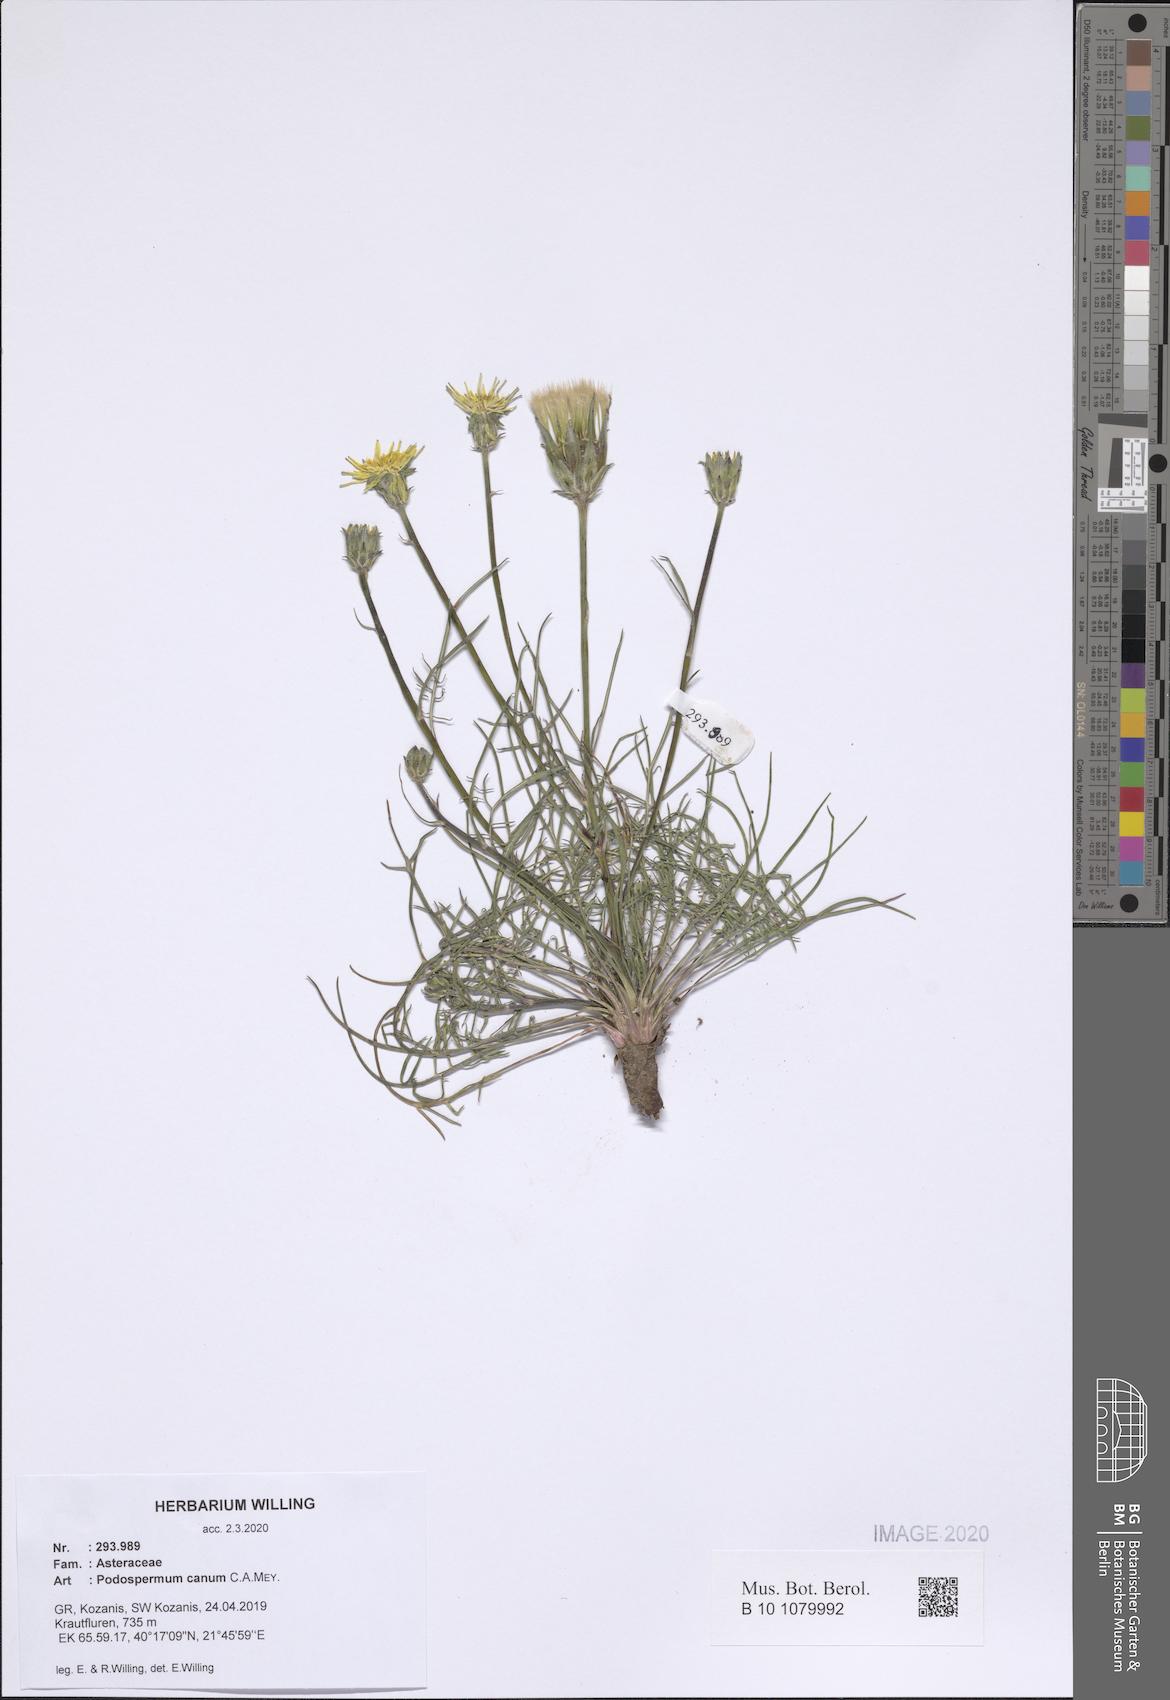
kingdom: Plantae
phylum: Tracheophyta
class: Magnoliopsida
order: Asterales
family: Asteraceae
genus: Scorzonera
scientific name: Scorzonera cana
